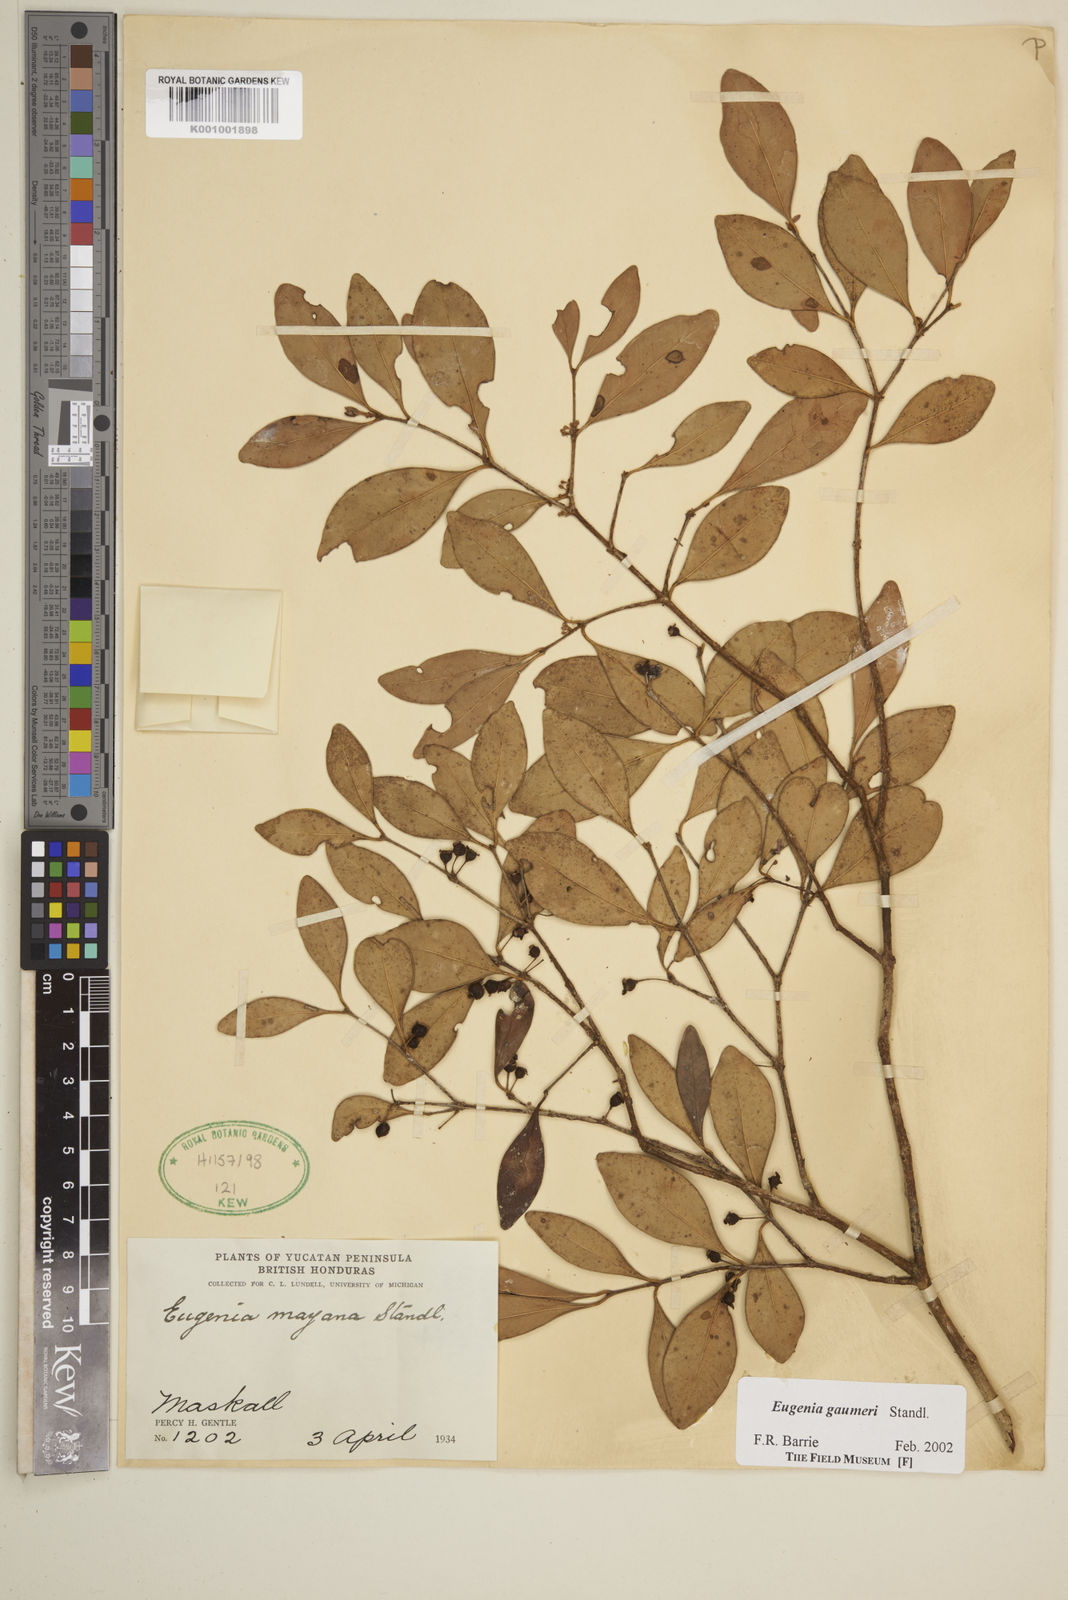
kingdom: Plantae
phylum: Tracheophyta
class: Magnoliopsida
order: Myrtales
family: Myrtaceae
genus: Eugenia
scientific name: Eugenia gaumeri
